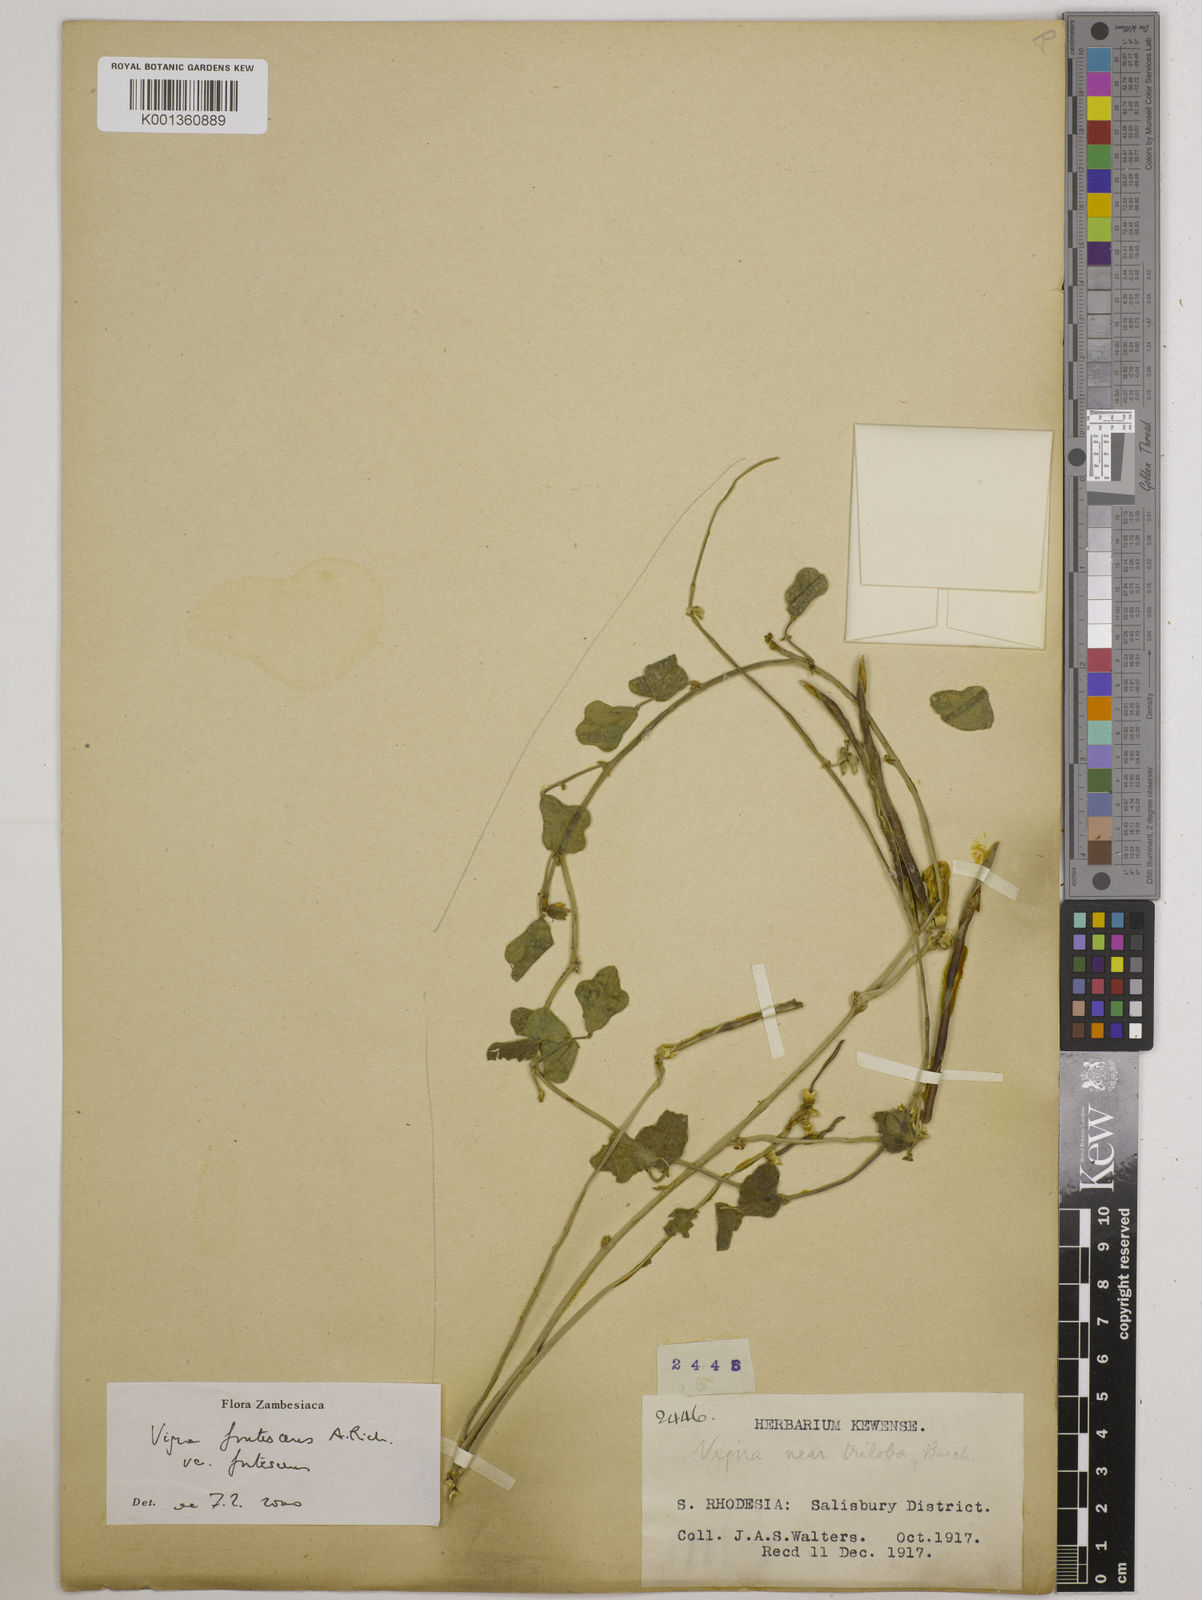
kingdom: Plantae
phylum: Tracheophyta
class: Magnoliopsida
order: Fabales
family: Fabaceae
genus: Vigna
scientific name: Vigna
